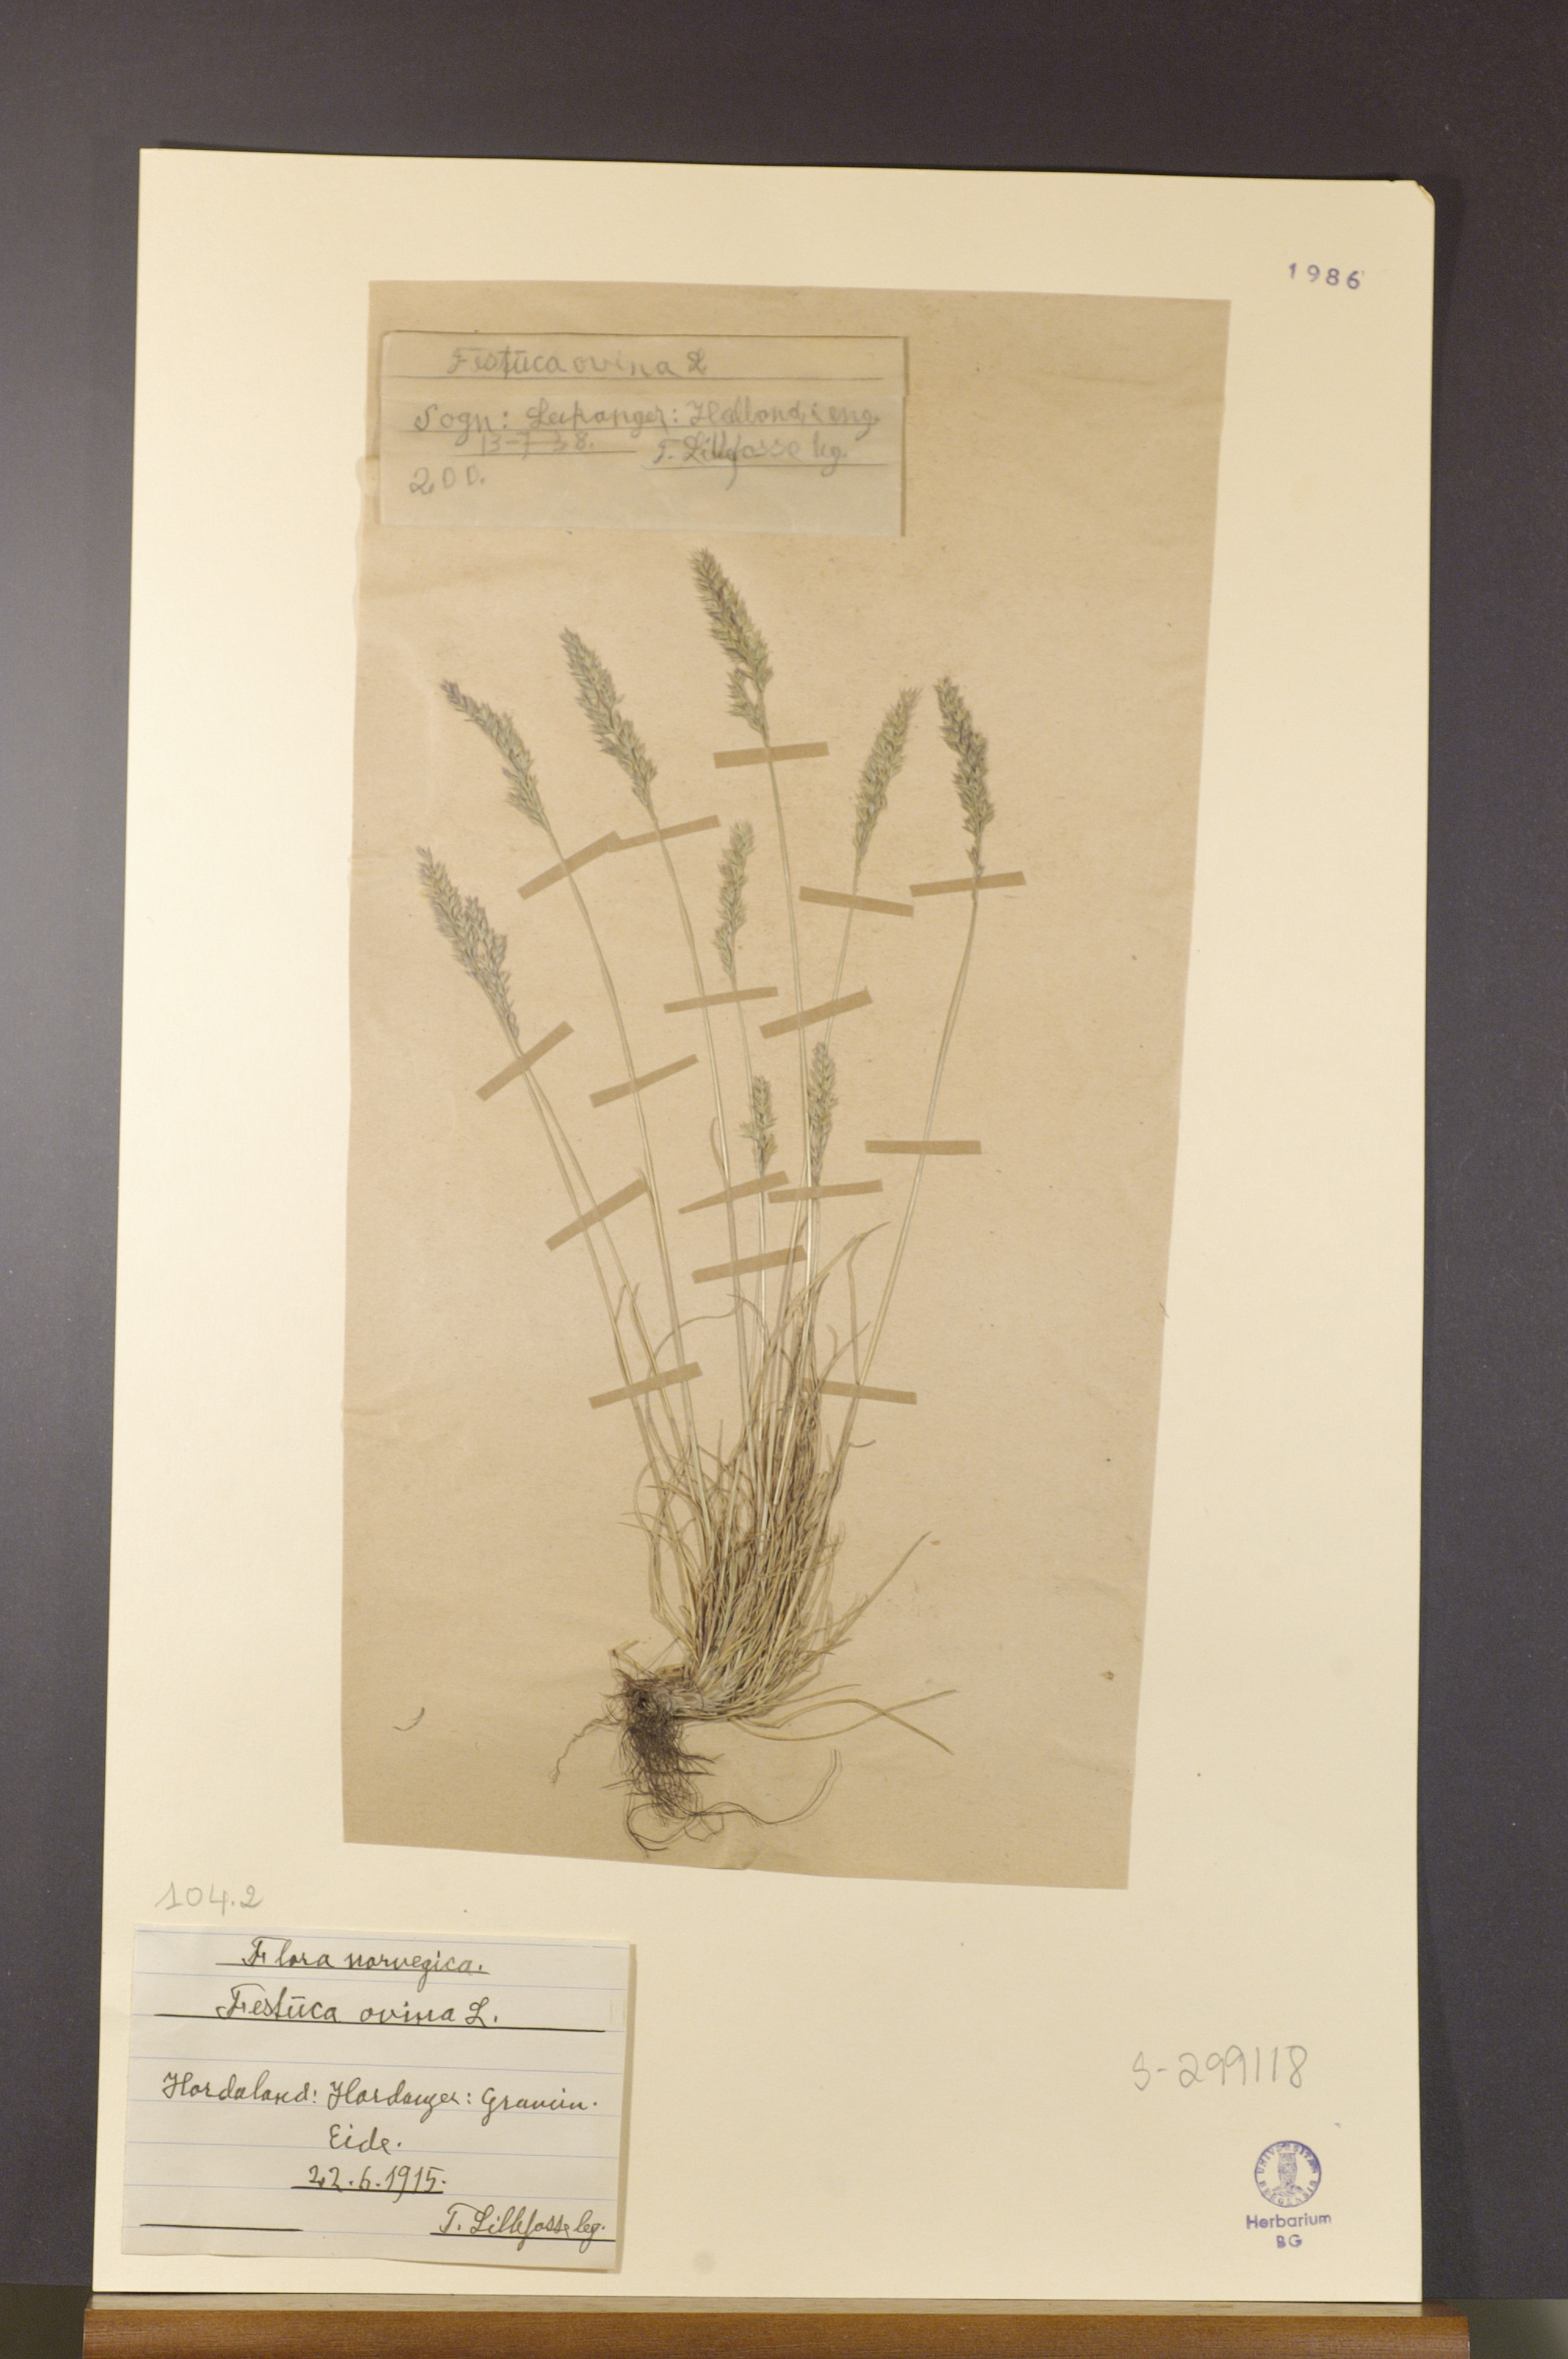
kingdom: Plantae
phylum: Tracheophyta
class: Liliopsida
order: Poales
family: Poaceae
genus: Festuca
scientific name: Festuca ovina
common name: Sheep fescue
